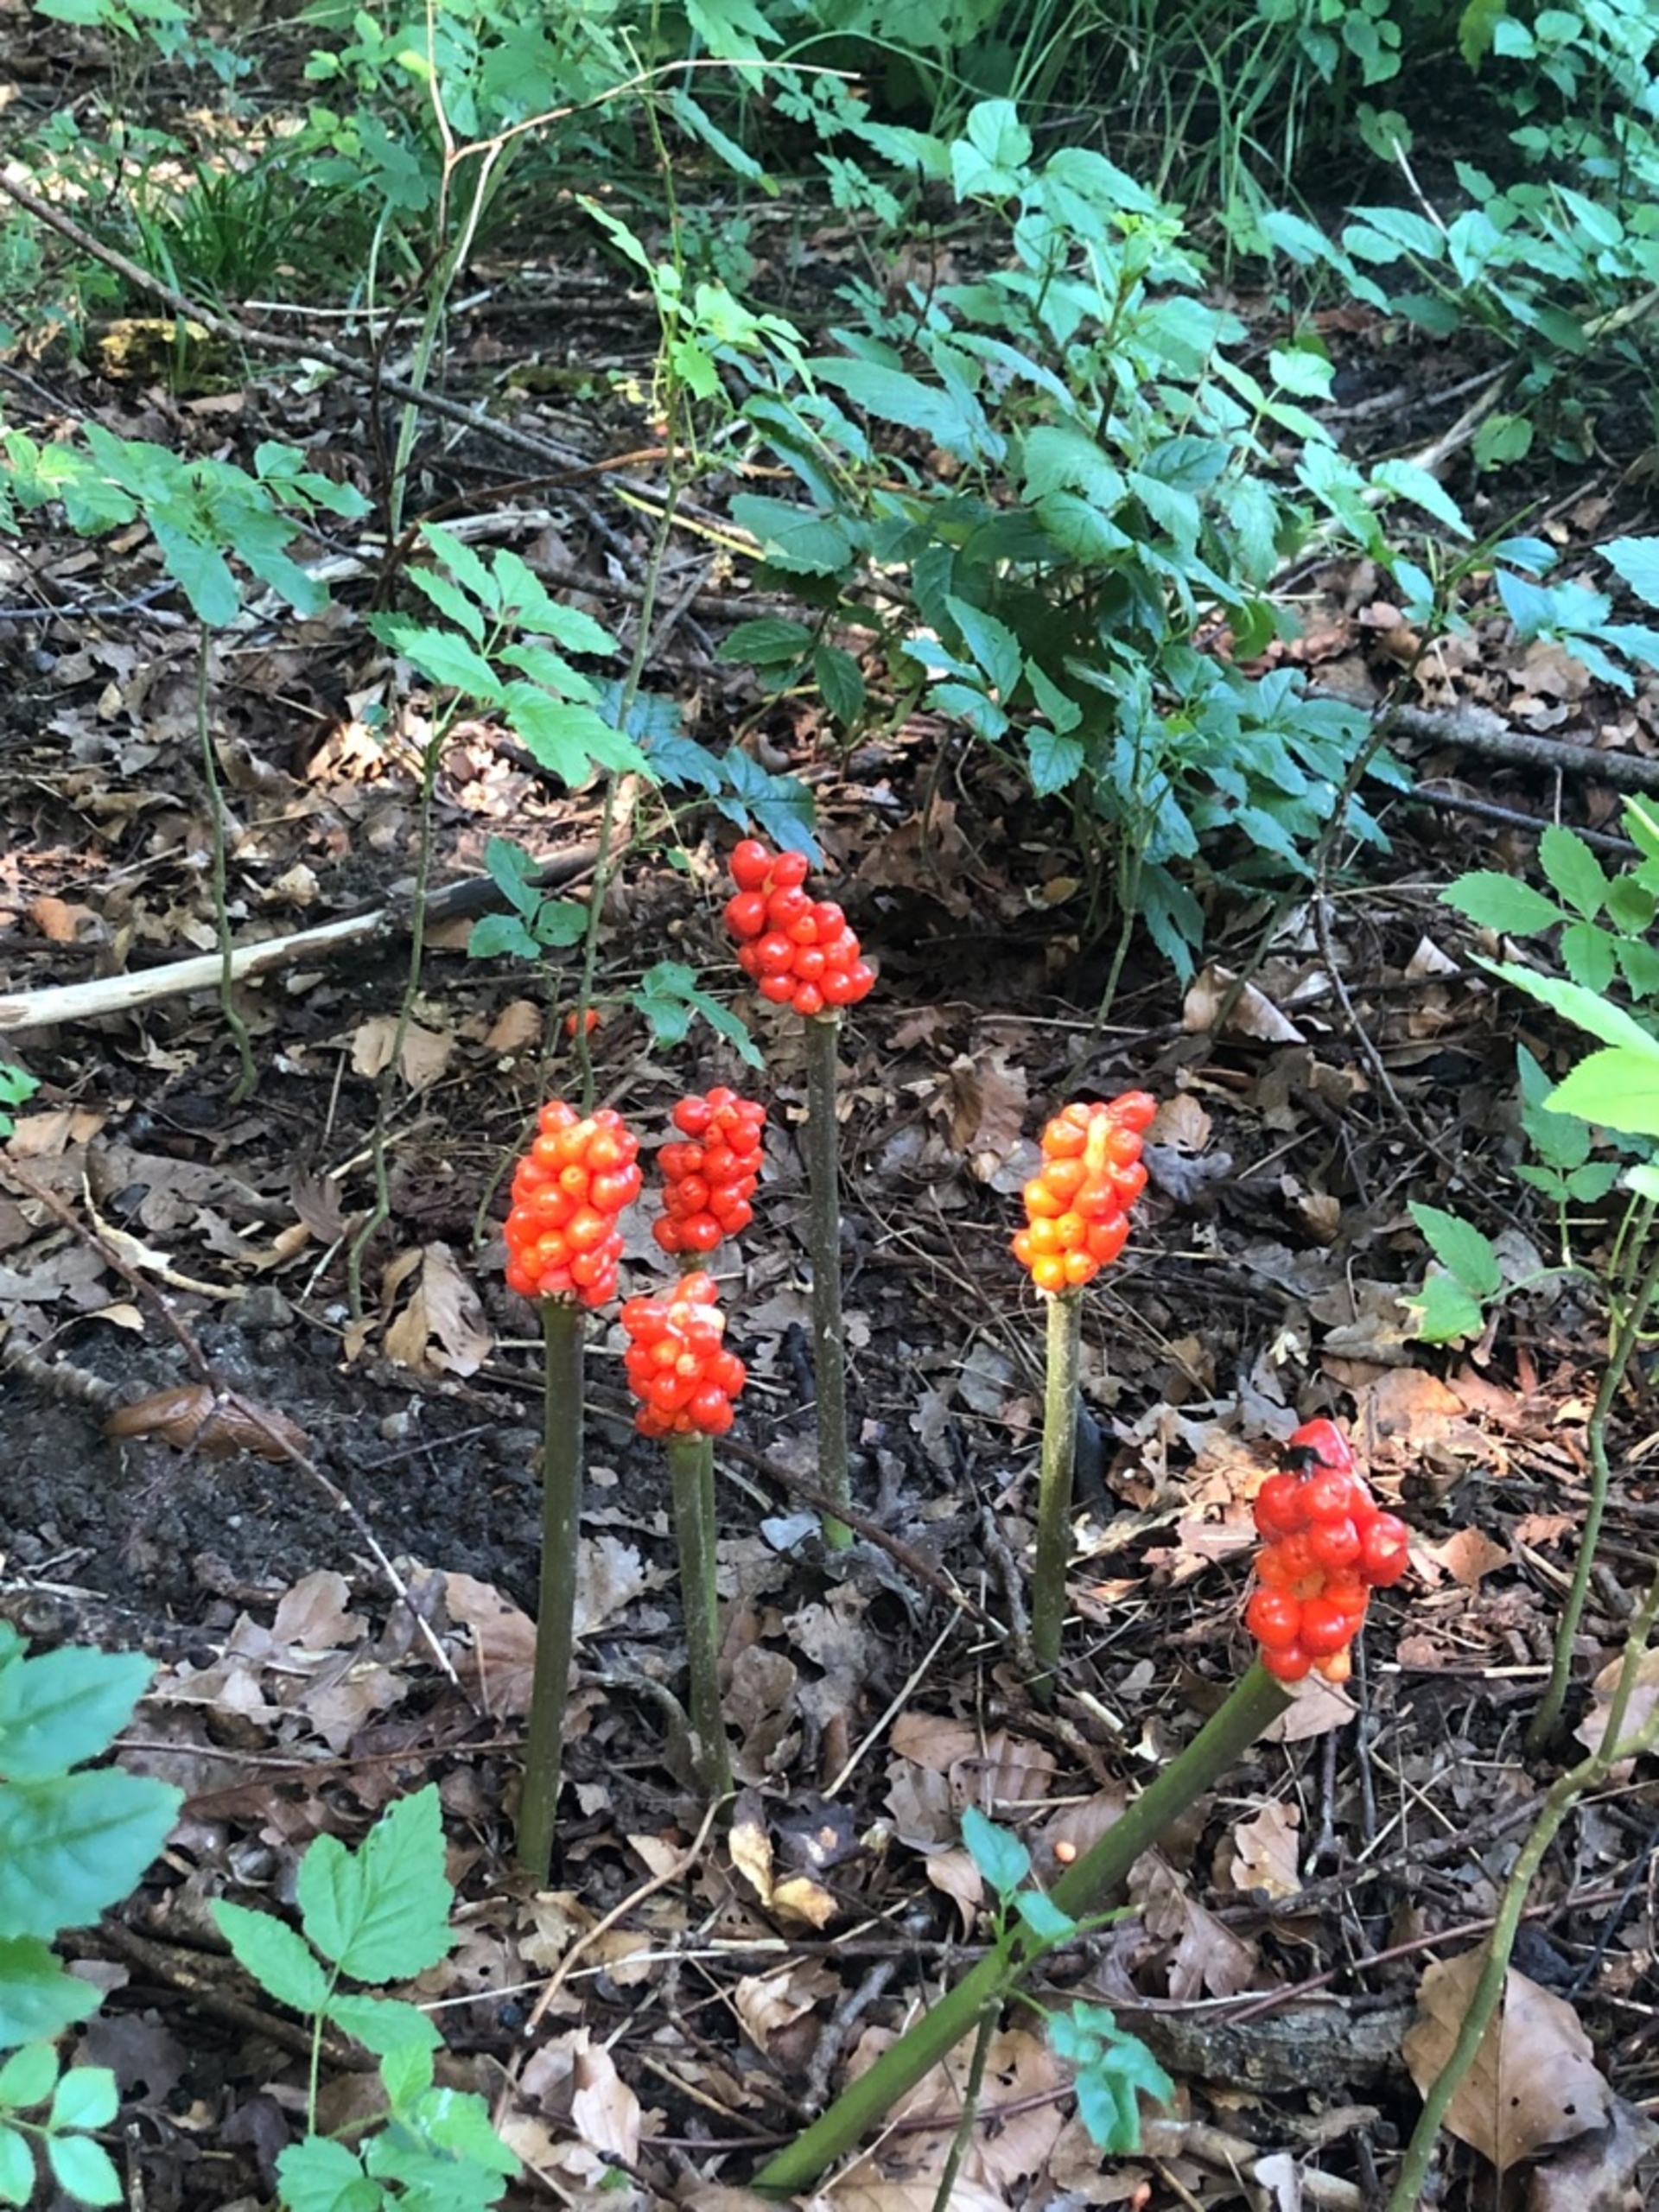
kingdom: Plantae
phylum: Tracheophyta
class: Liliopsida
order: Alismatales
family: Araceae
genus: Arum
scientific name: Arum
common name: Arumslægten
